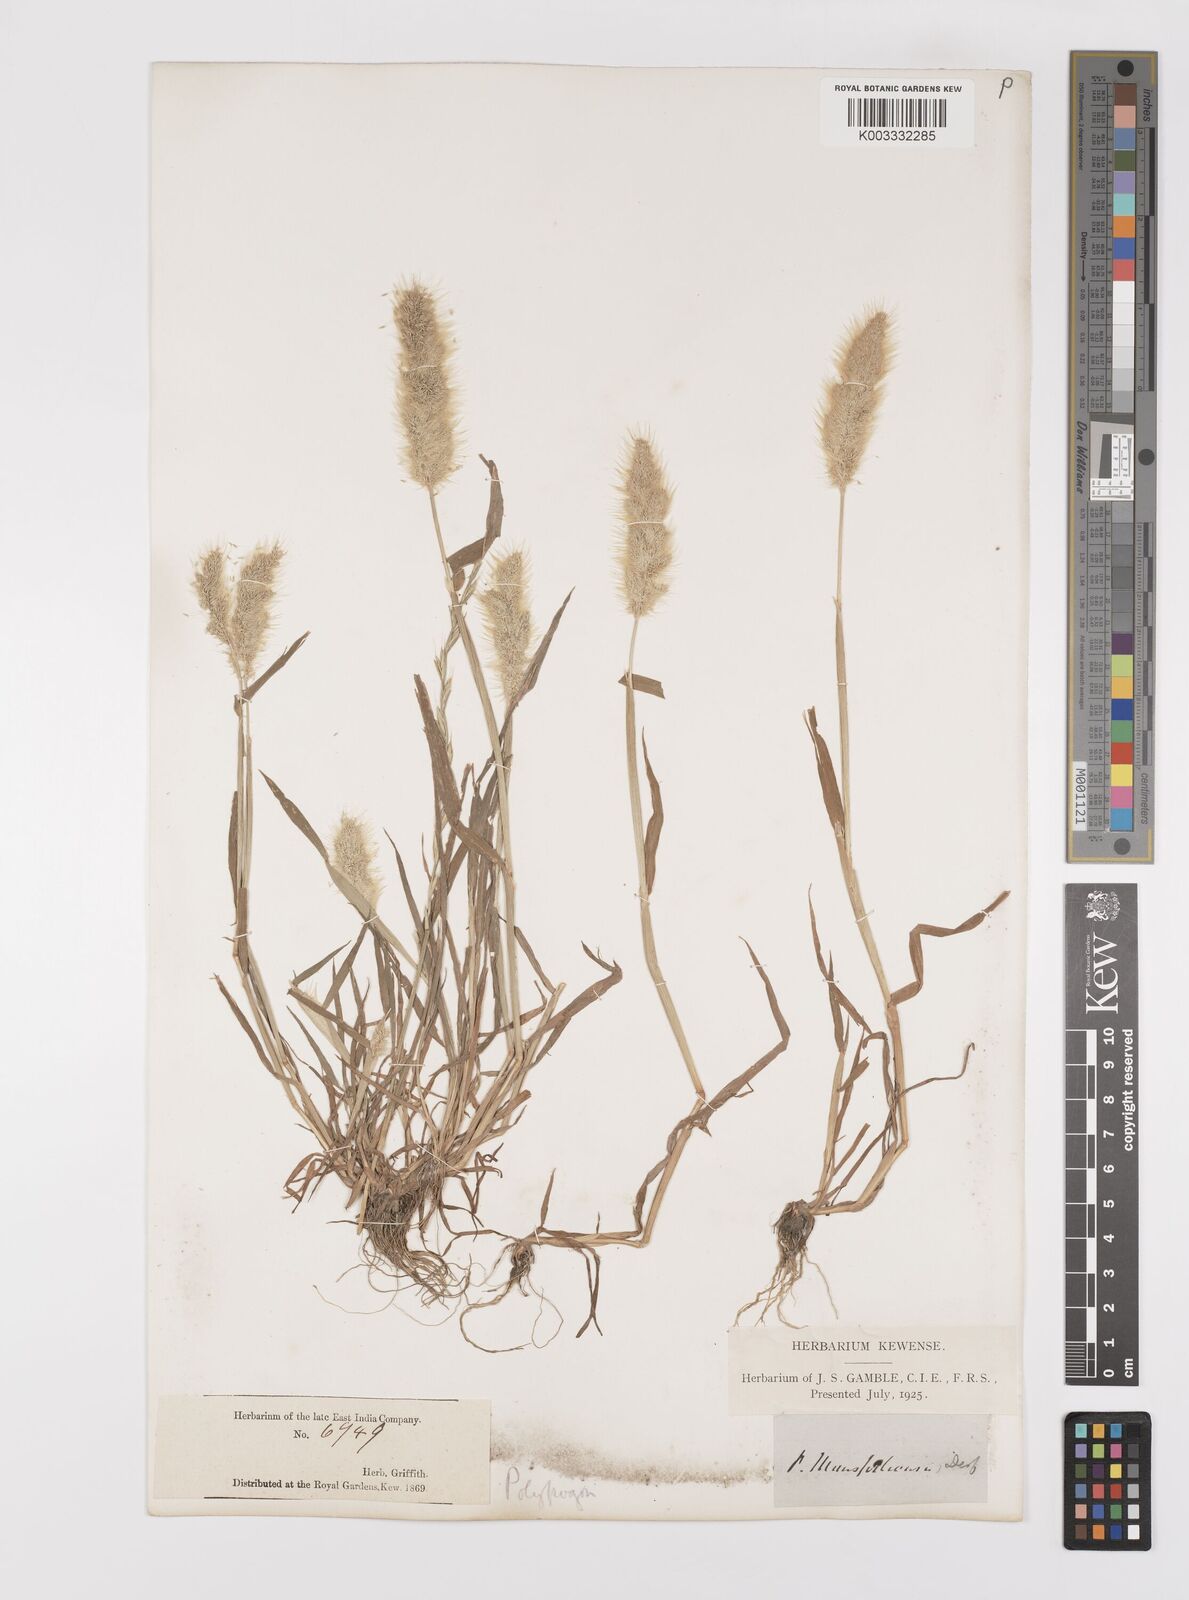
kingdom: Plantae
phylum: Tracheophyta
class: Liliopsida
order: Poales
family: Poaceae
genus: Polypogon
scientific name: Polypogon monspeliensis
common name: Annual rabbitsfoot grass
